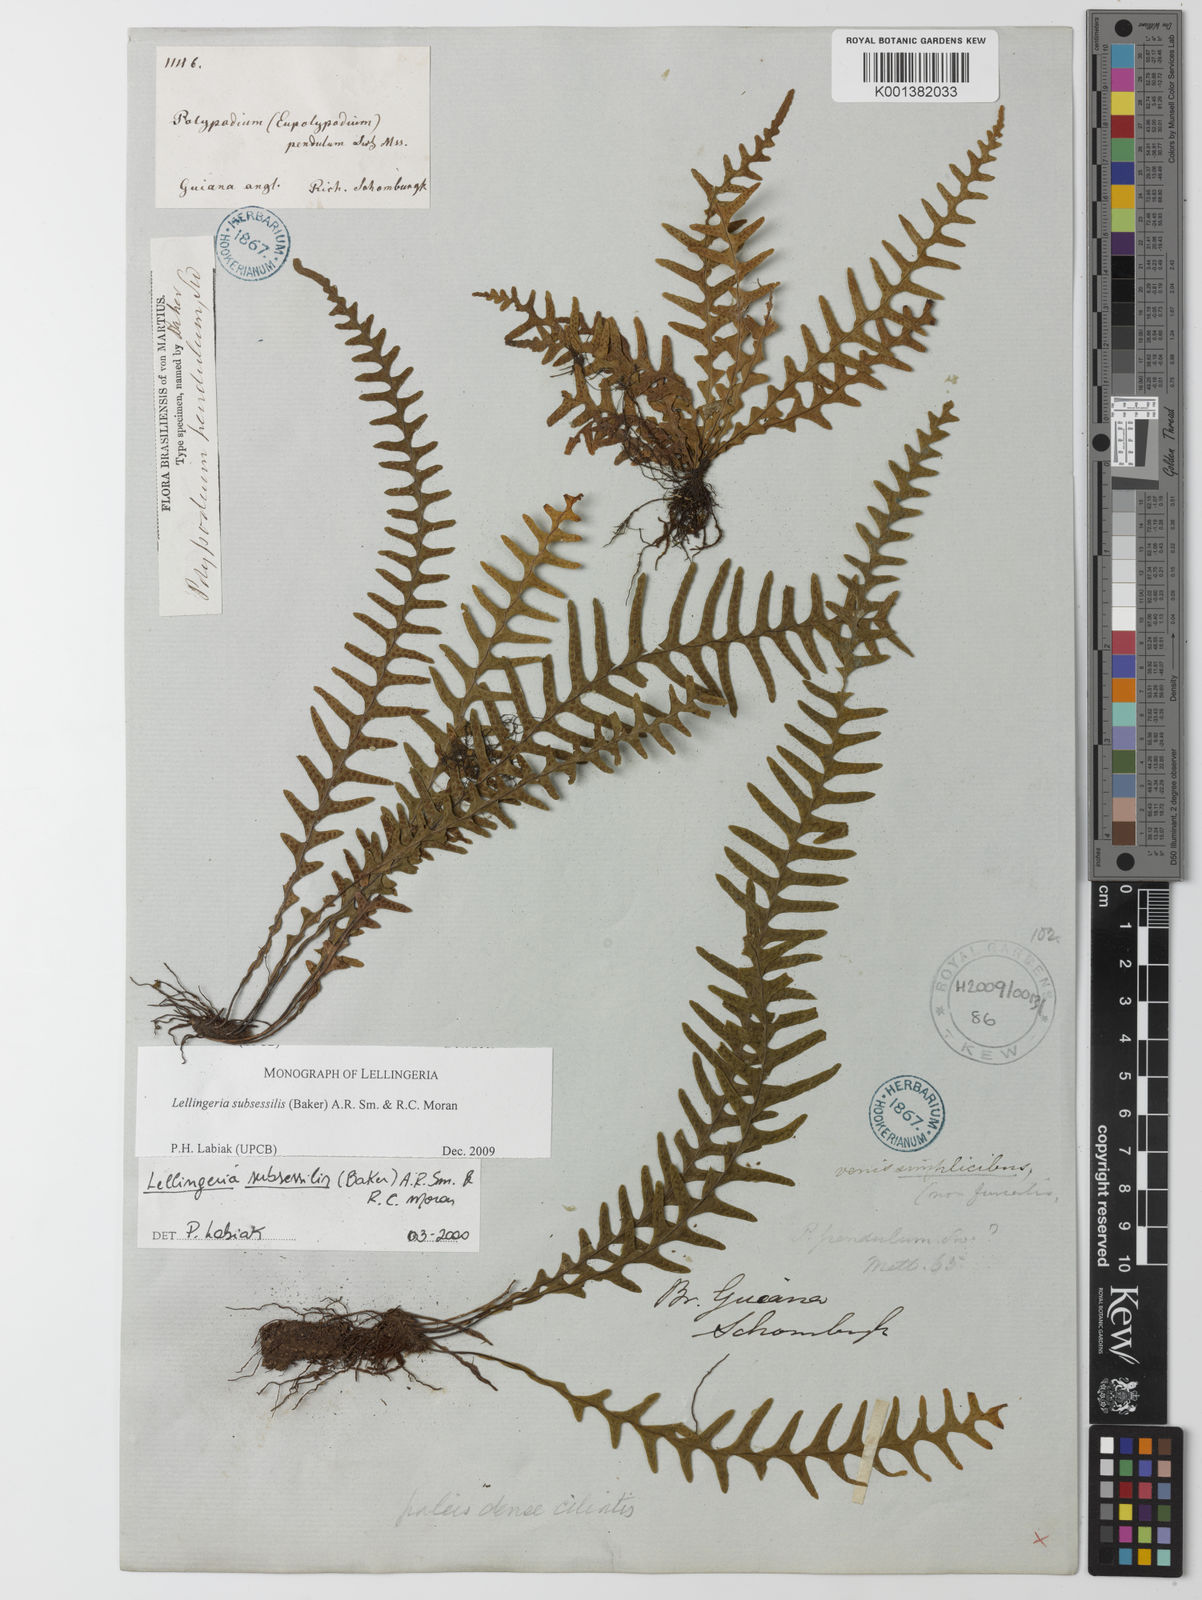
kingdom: Plantae
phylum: Tracheophyta
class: Polypodiopsida
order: Polypodiales
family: Polypodiaceae
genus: Lellingeria
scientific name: Lellingeria subsessilis
